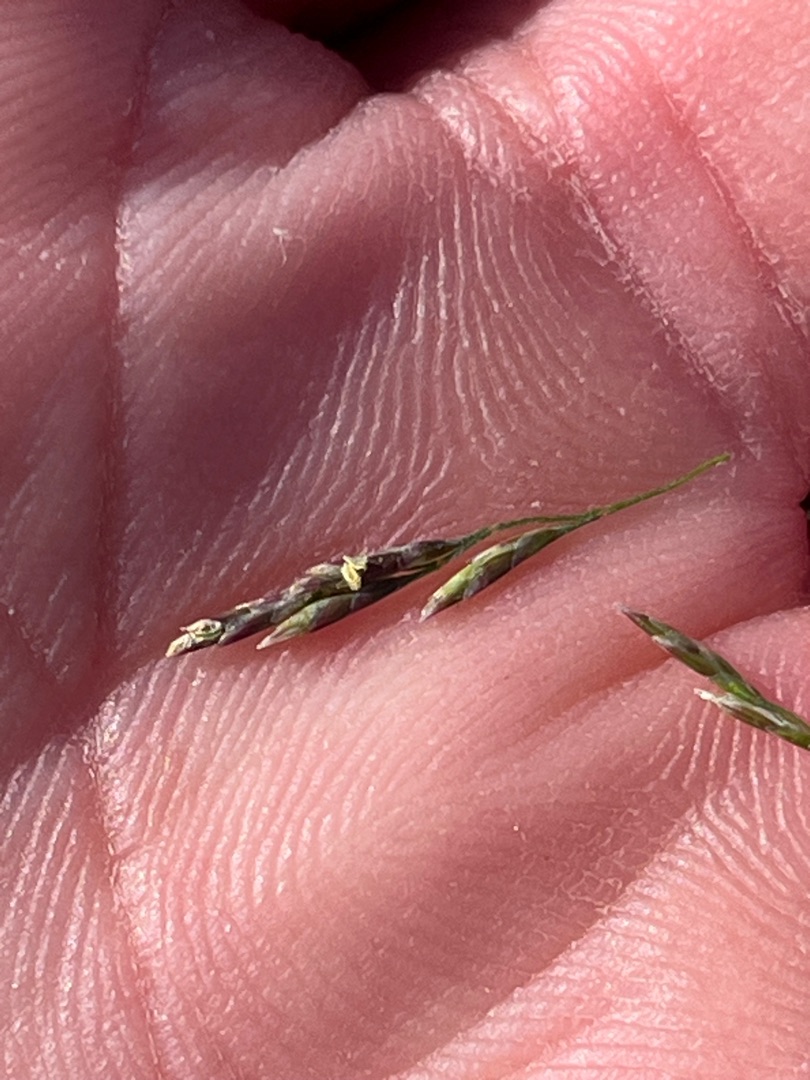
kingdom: Plantae
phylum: Tracheophyta
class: Liliopsida
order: Poales
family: Poaceae
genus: Puccinellia
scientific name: Puccinellia distans
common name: Slap annelgræs
